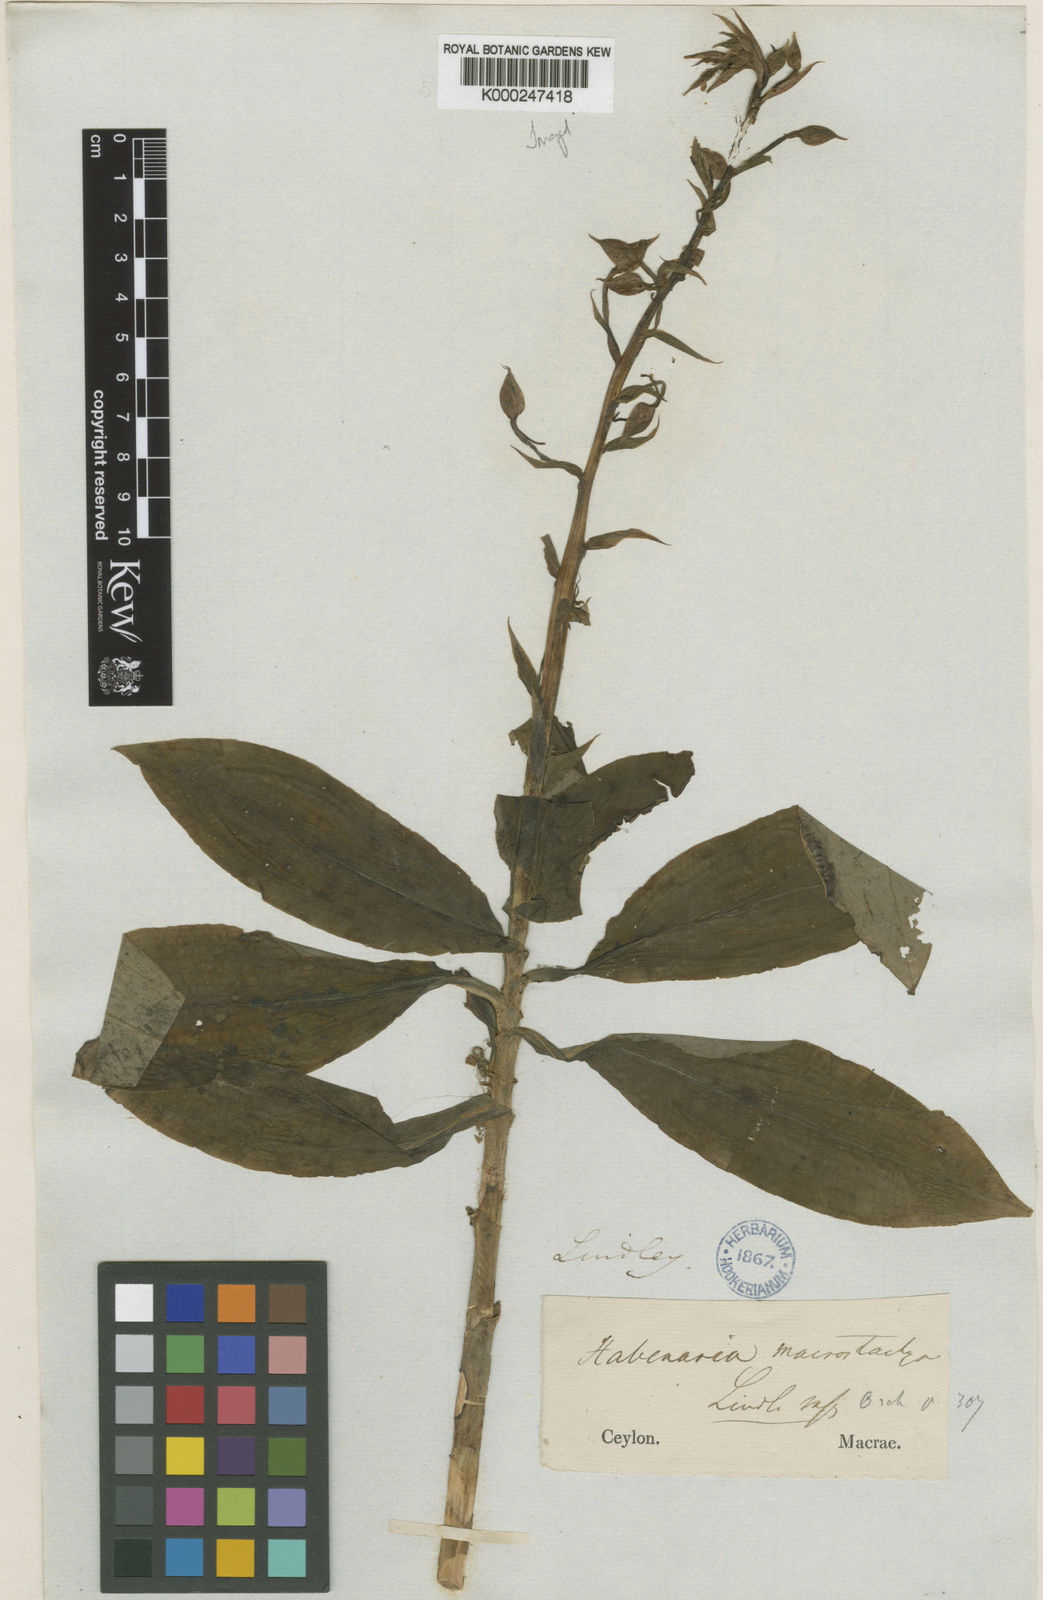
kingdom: Plantae
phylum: Tracheophyta
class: Liliopsida
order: Asparagales
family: Orchidaceae
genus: Habenaria
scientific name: Habenaria macrostachya
